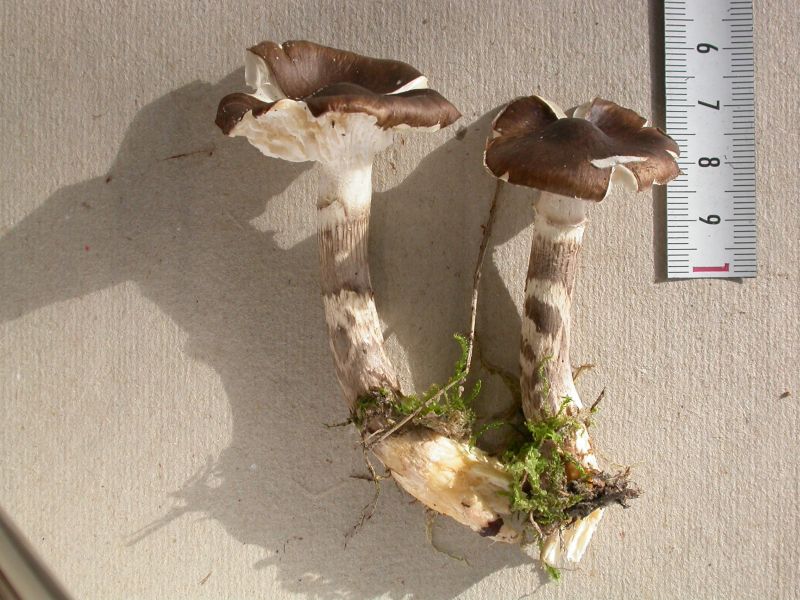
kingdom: Fungi
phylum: Basidiomycota
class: Agaricomycetes
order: Agaricales
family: Hygrophoraceae
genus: Hygrophorus
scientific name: Hygrophorus olivaceoalbus
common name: hvidbrun sneglehat
